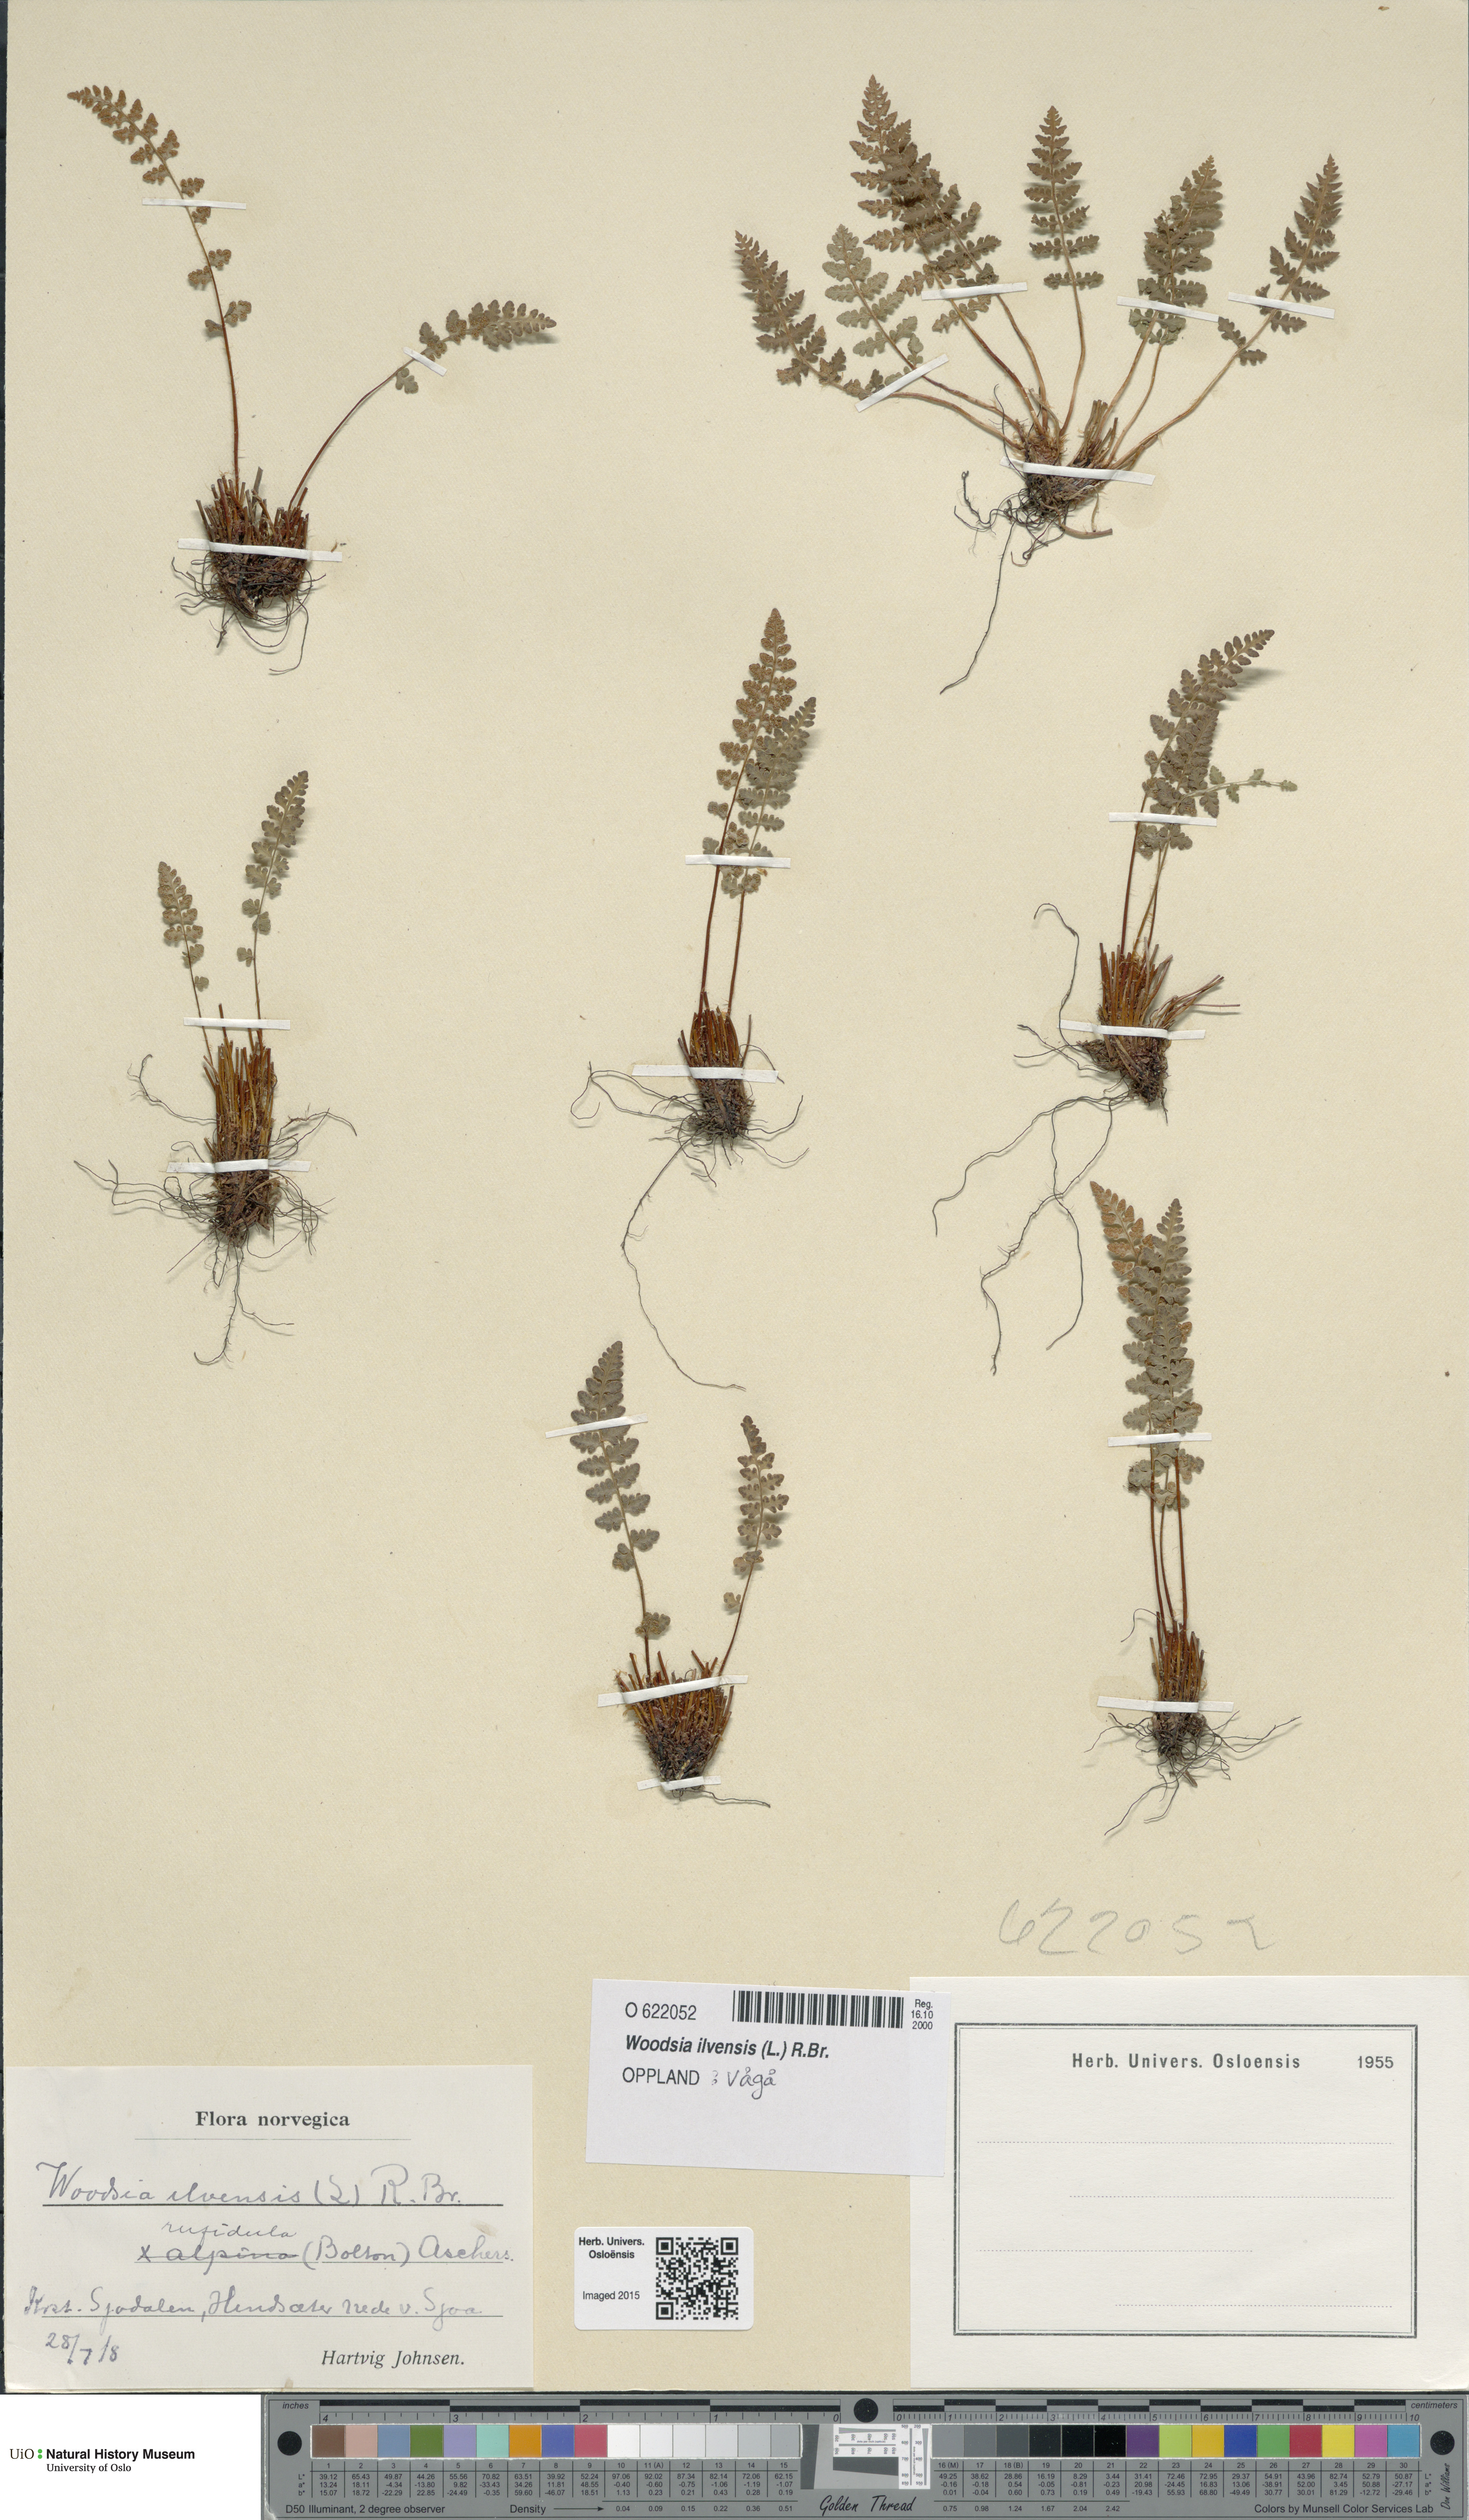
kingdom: Plantae
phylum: Tracheophyta
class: Polypodiopsida
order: Polypodiales
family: Woodsiaceae
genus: Woodsia
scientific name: Woodsia ilvensis
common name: Fragrant woodsia
